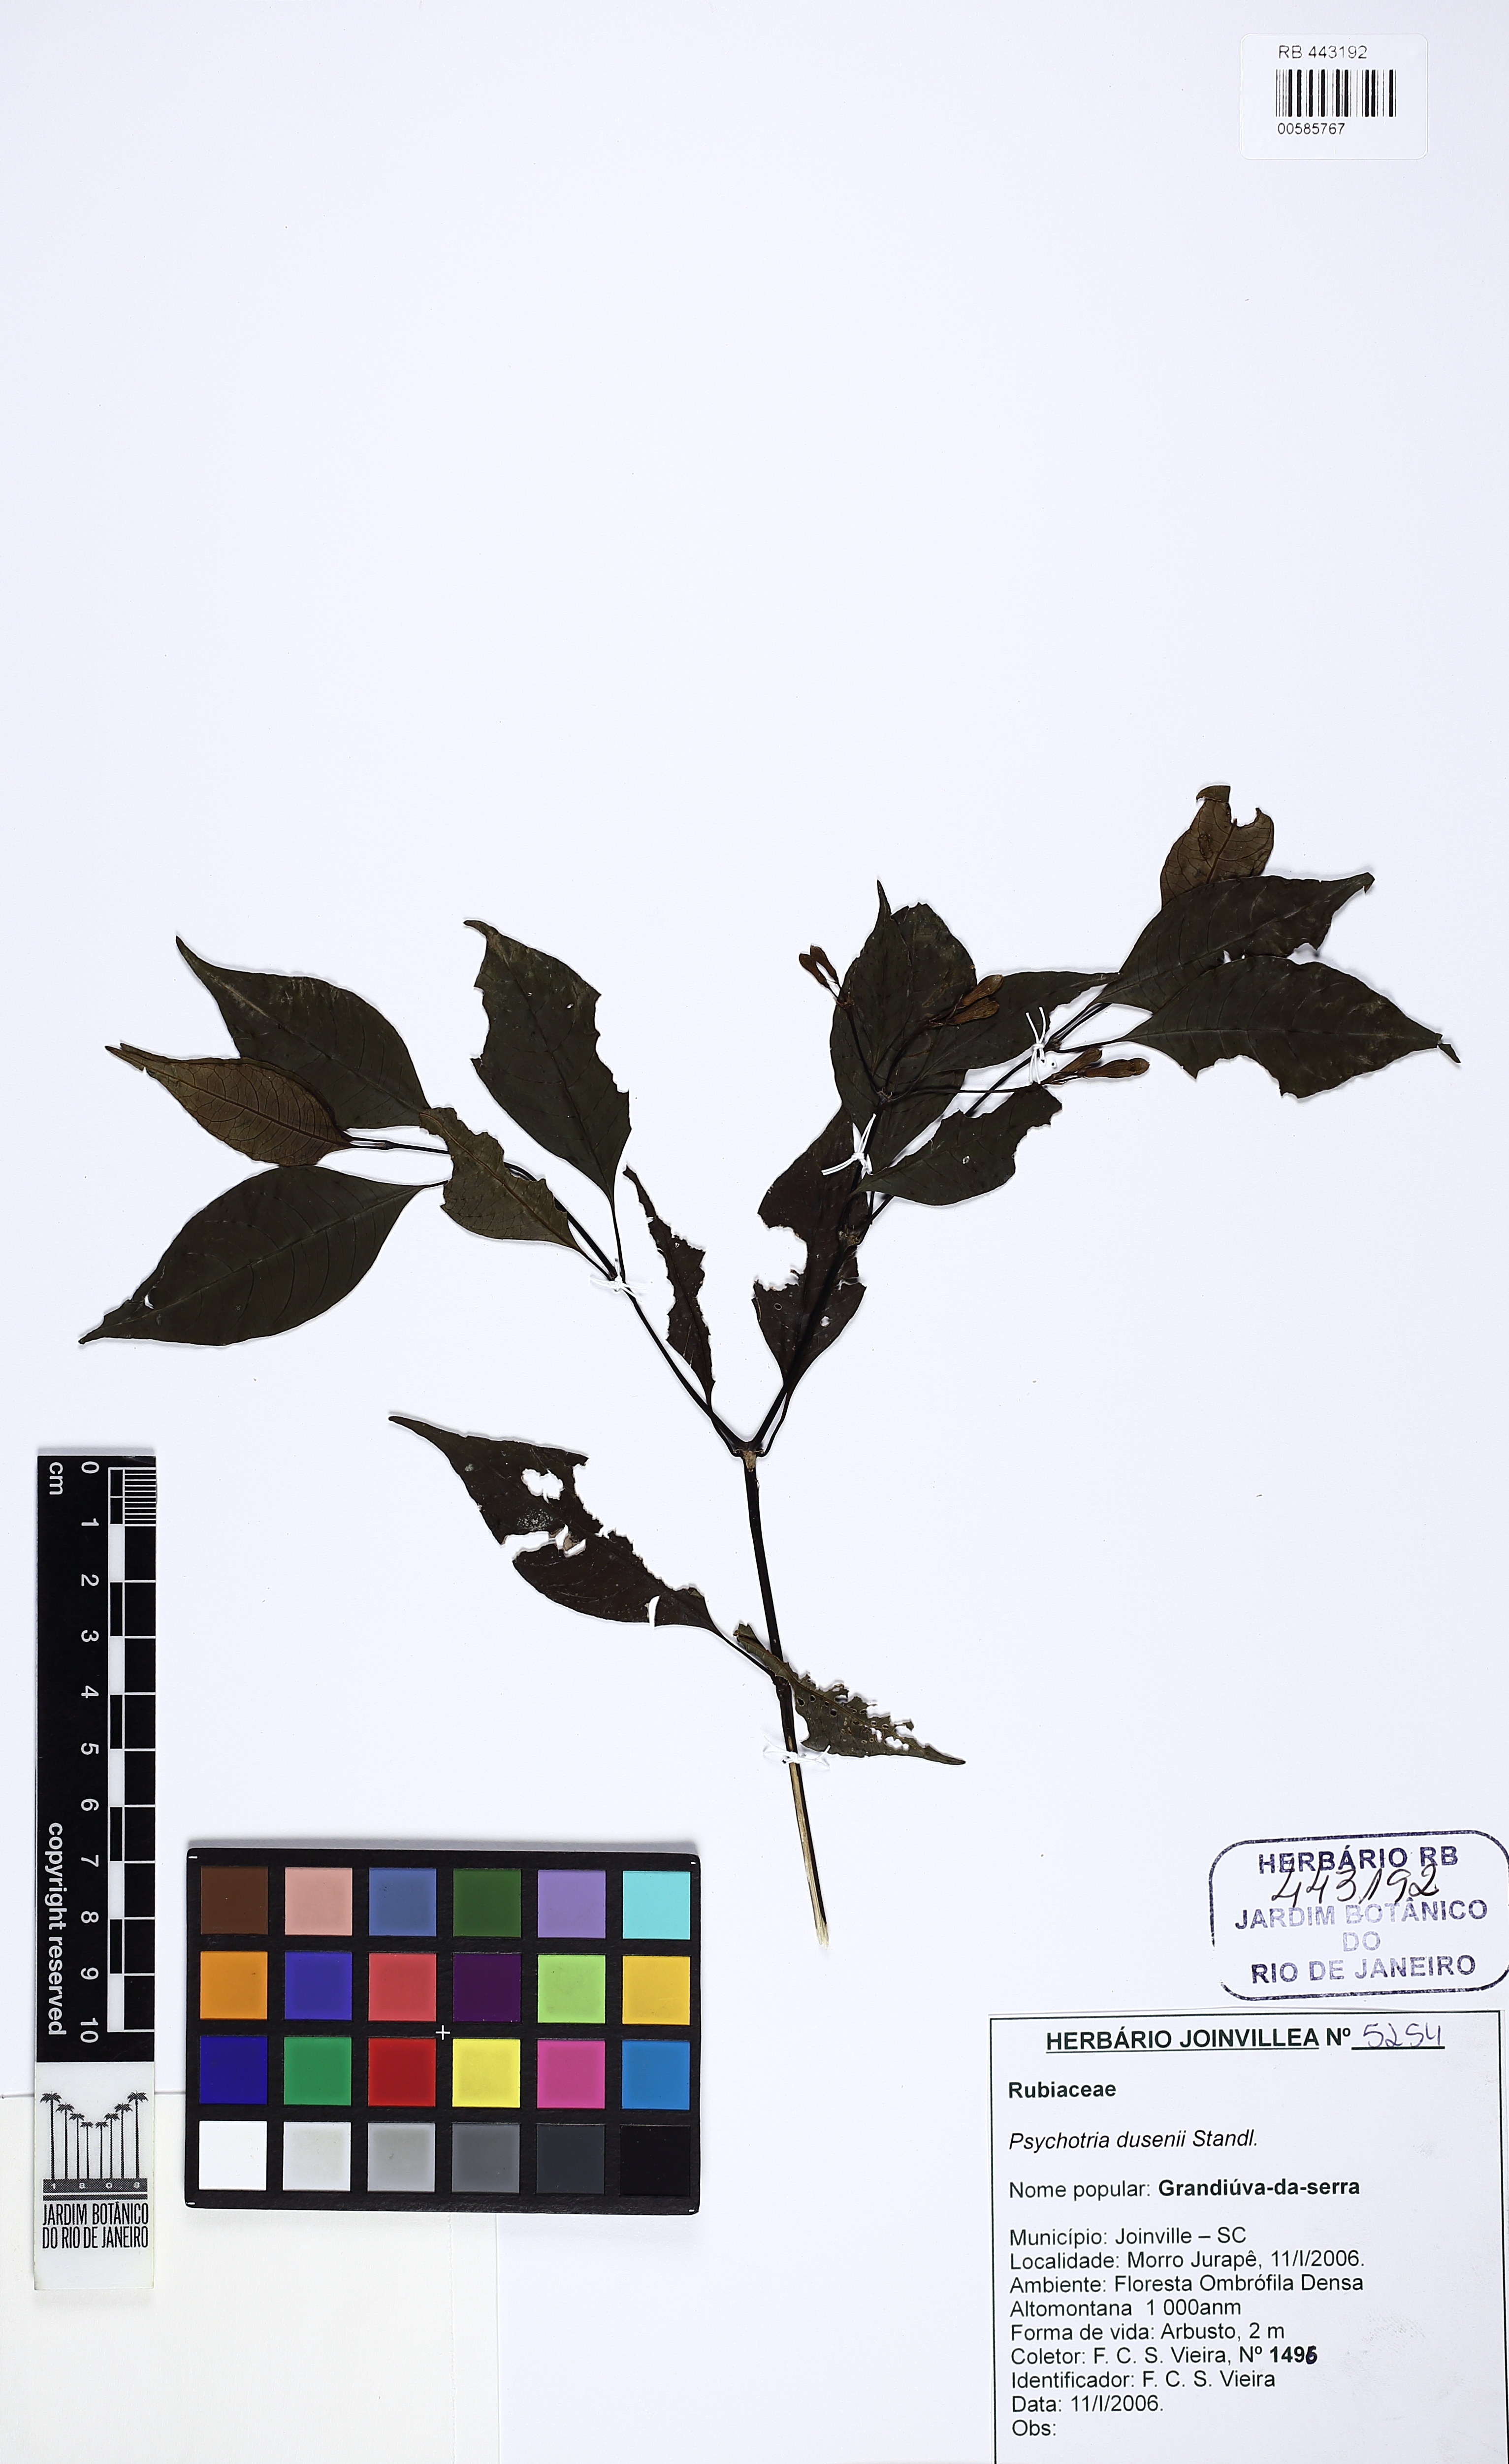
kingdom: Plantae
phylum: Tracheophyta
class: Magnoliopsida
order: Gentianales
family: Rubiaceae
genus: Psychotria
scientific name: Psychotria alegre
